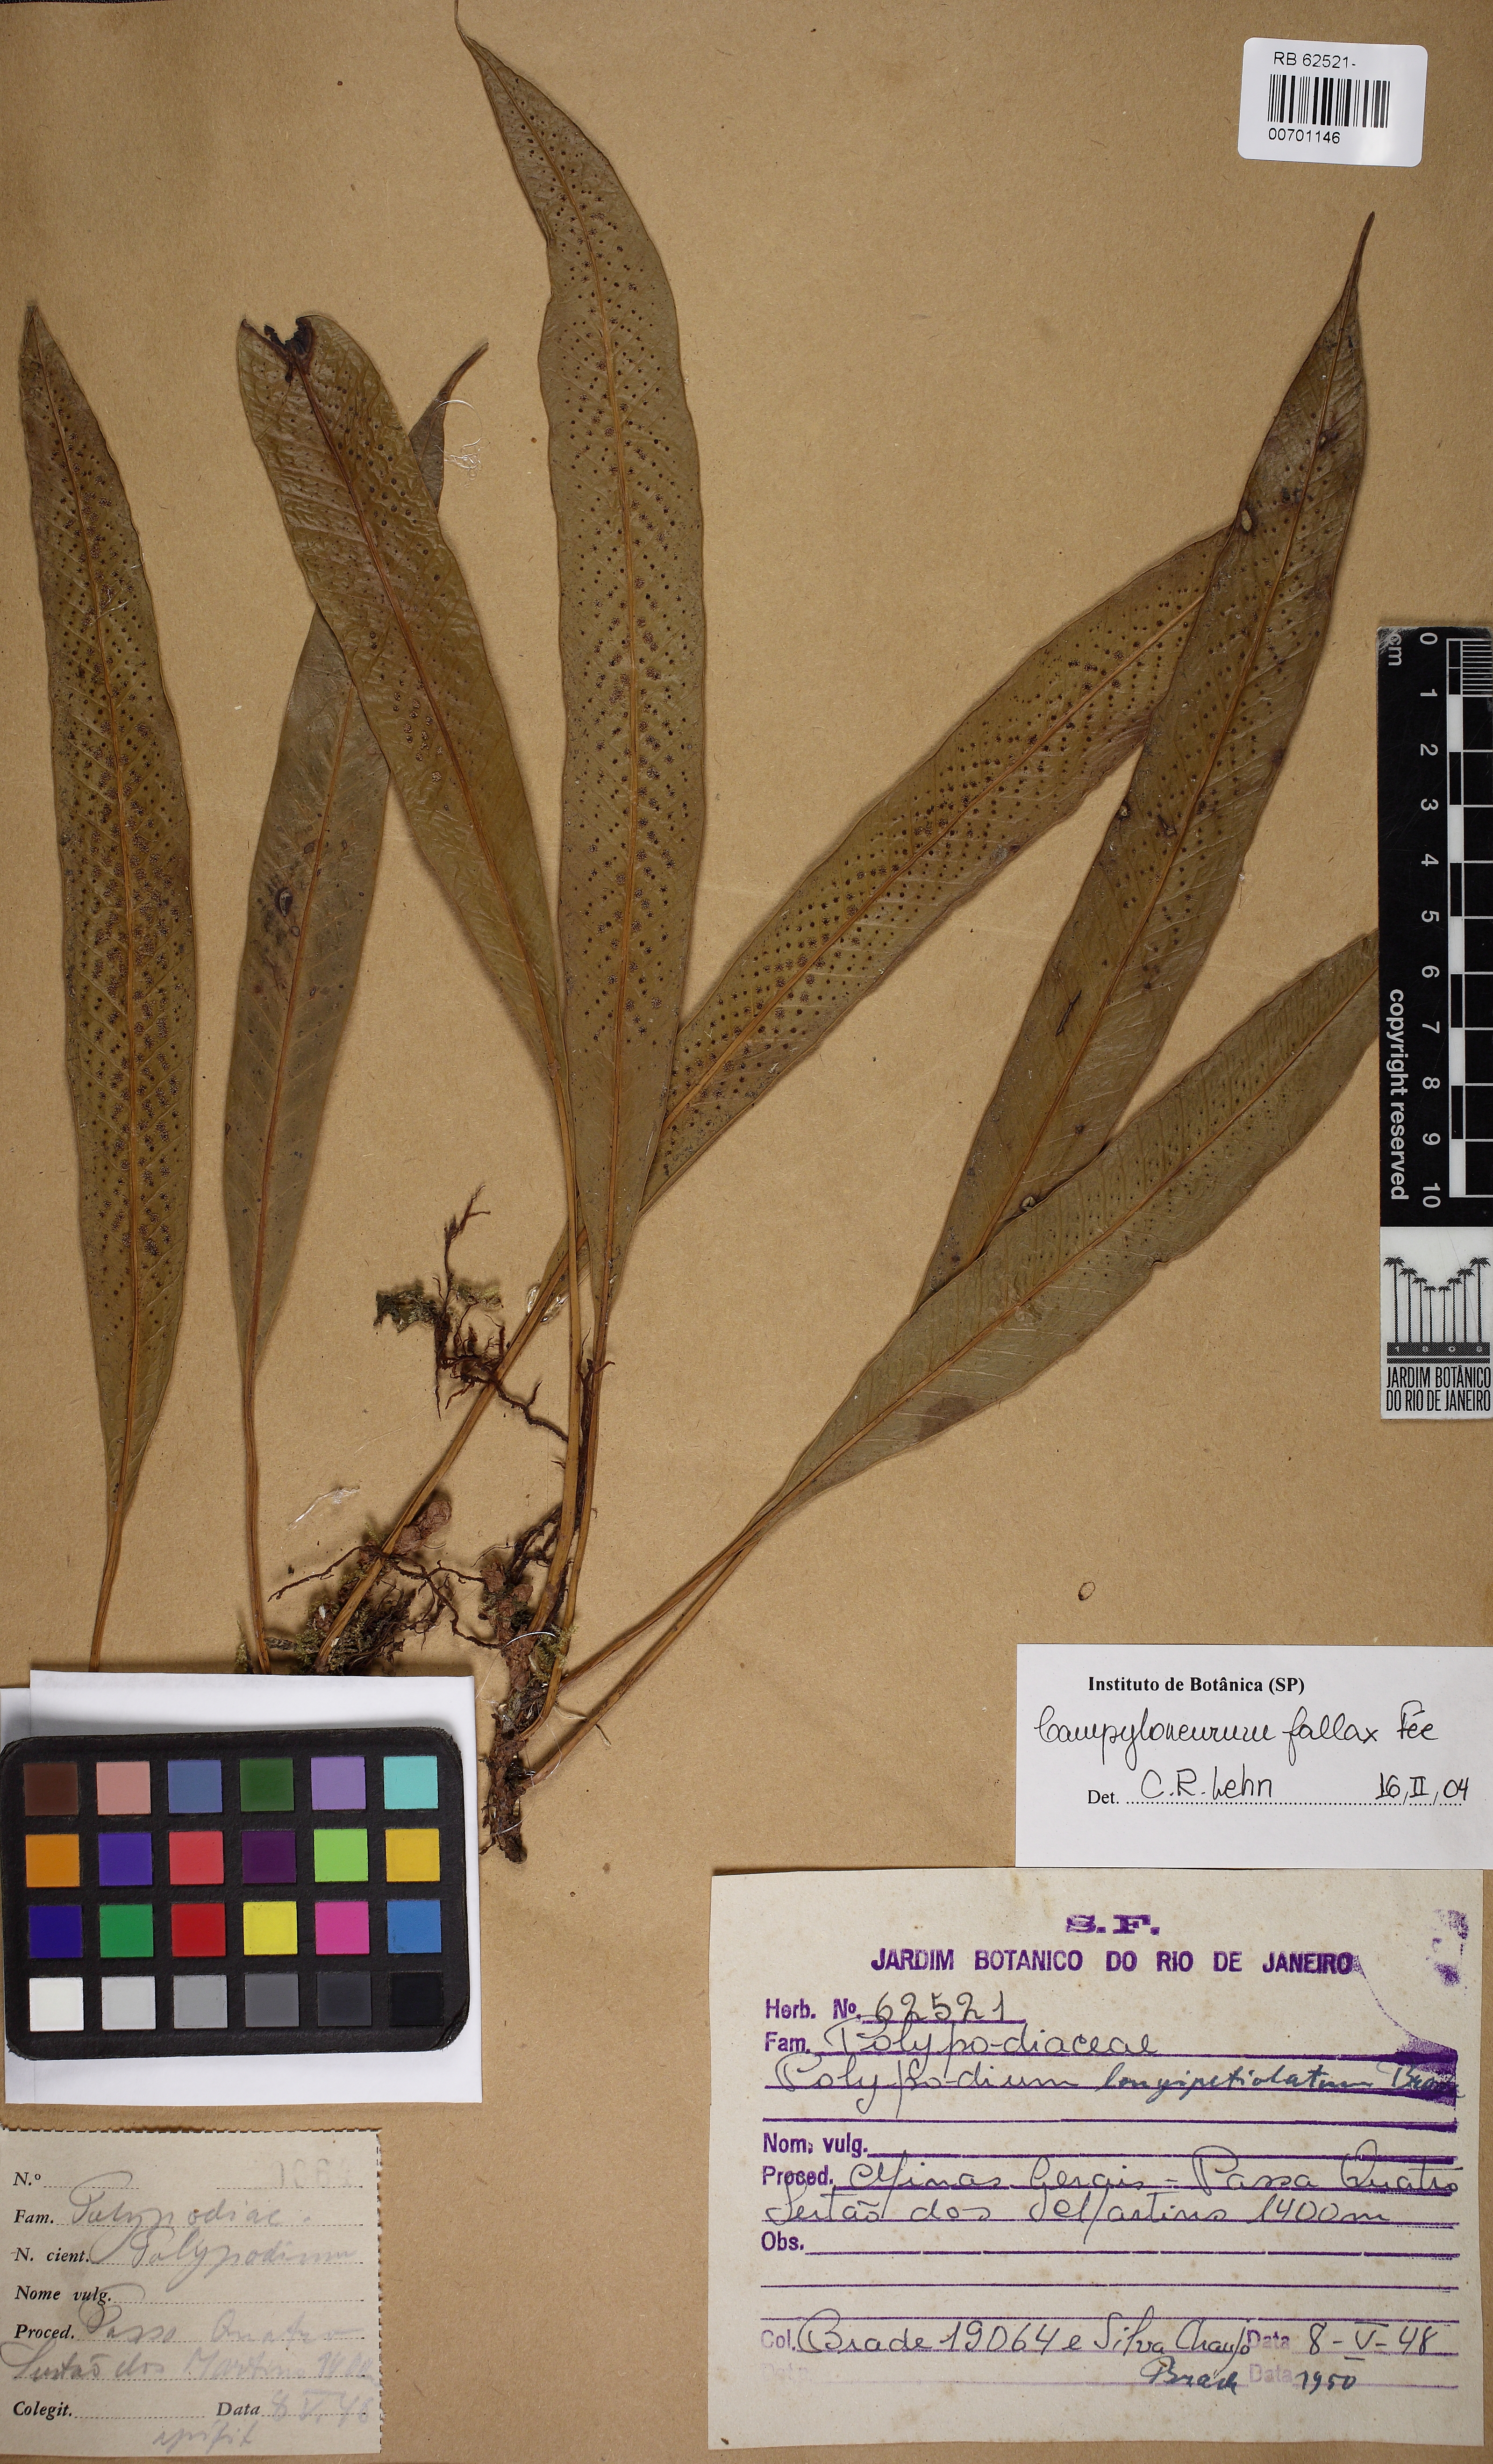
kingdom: Plantae
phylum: Tracheophyta
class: Polypodiopsida
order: Polypodiales
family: Polypodiaceae
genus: Campyloneurum
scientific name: Campyloneurum fallax
